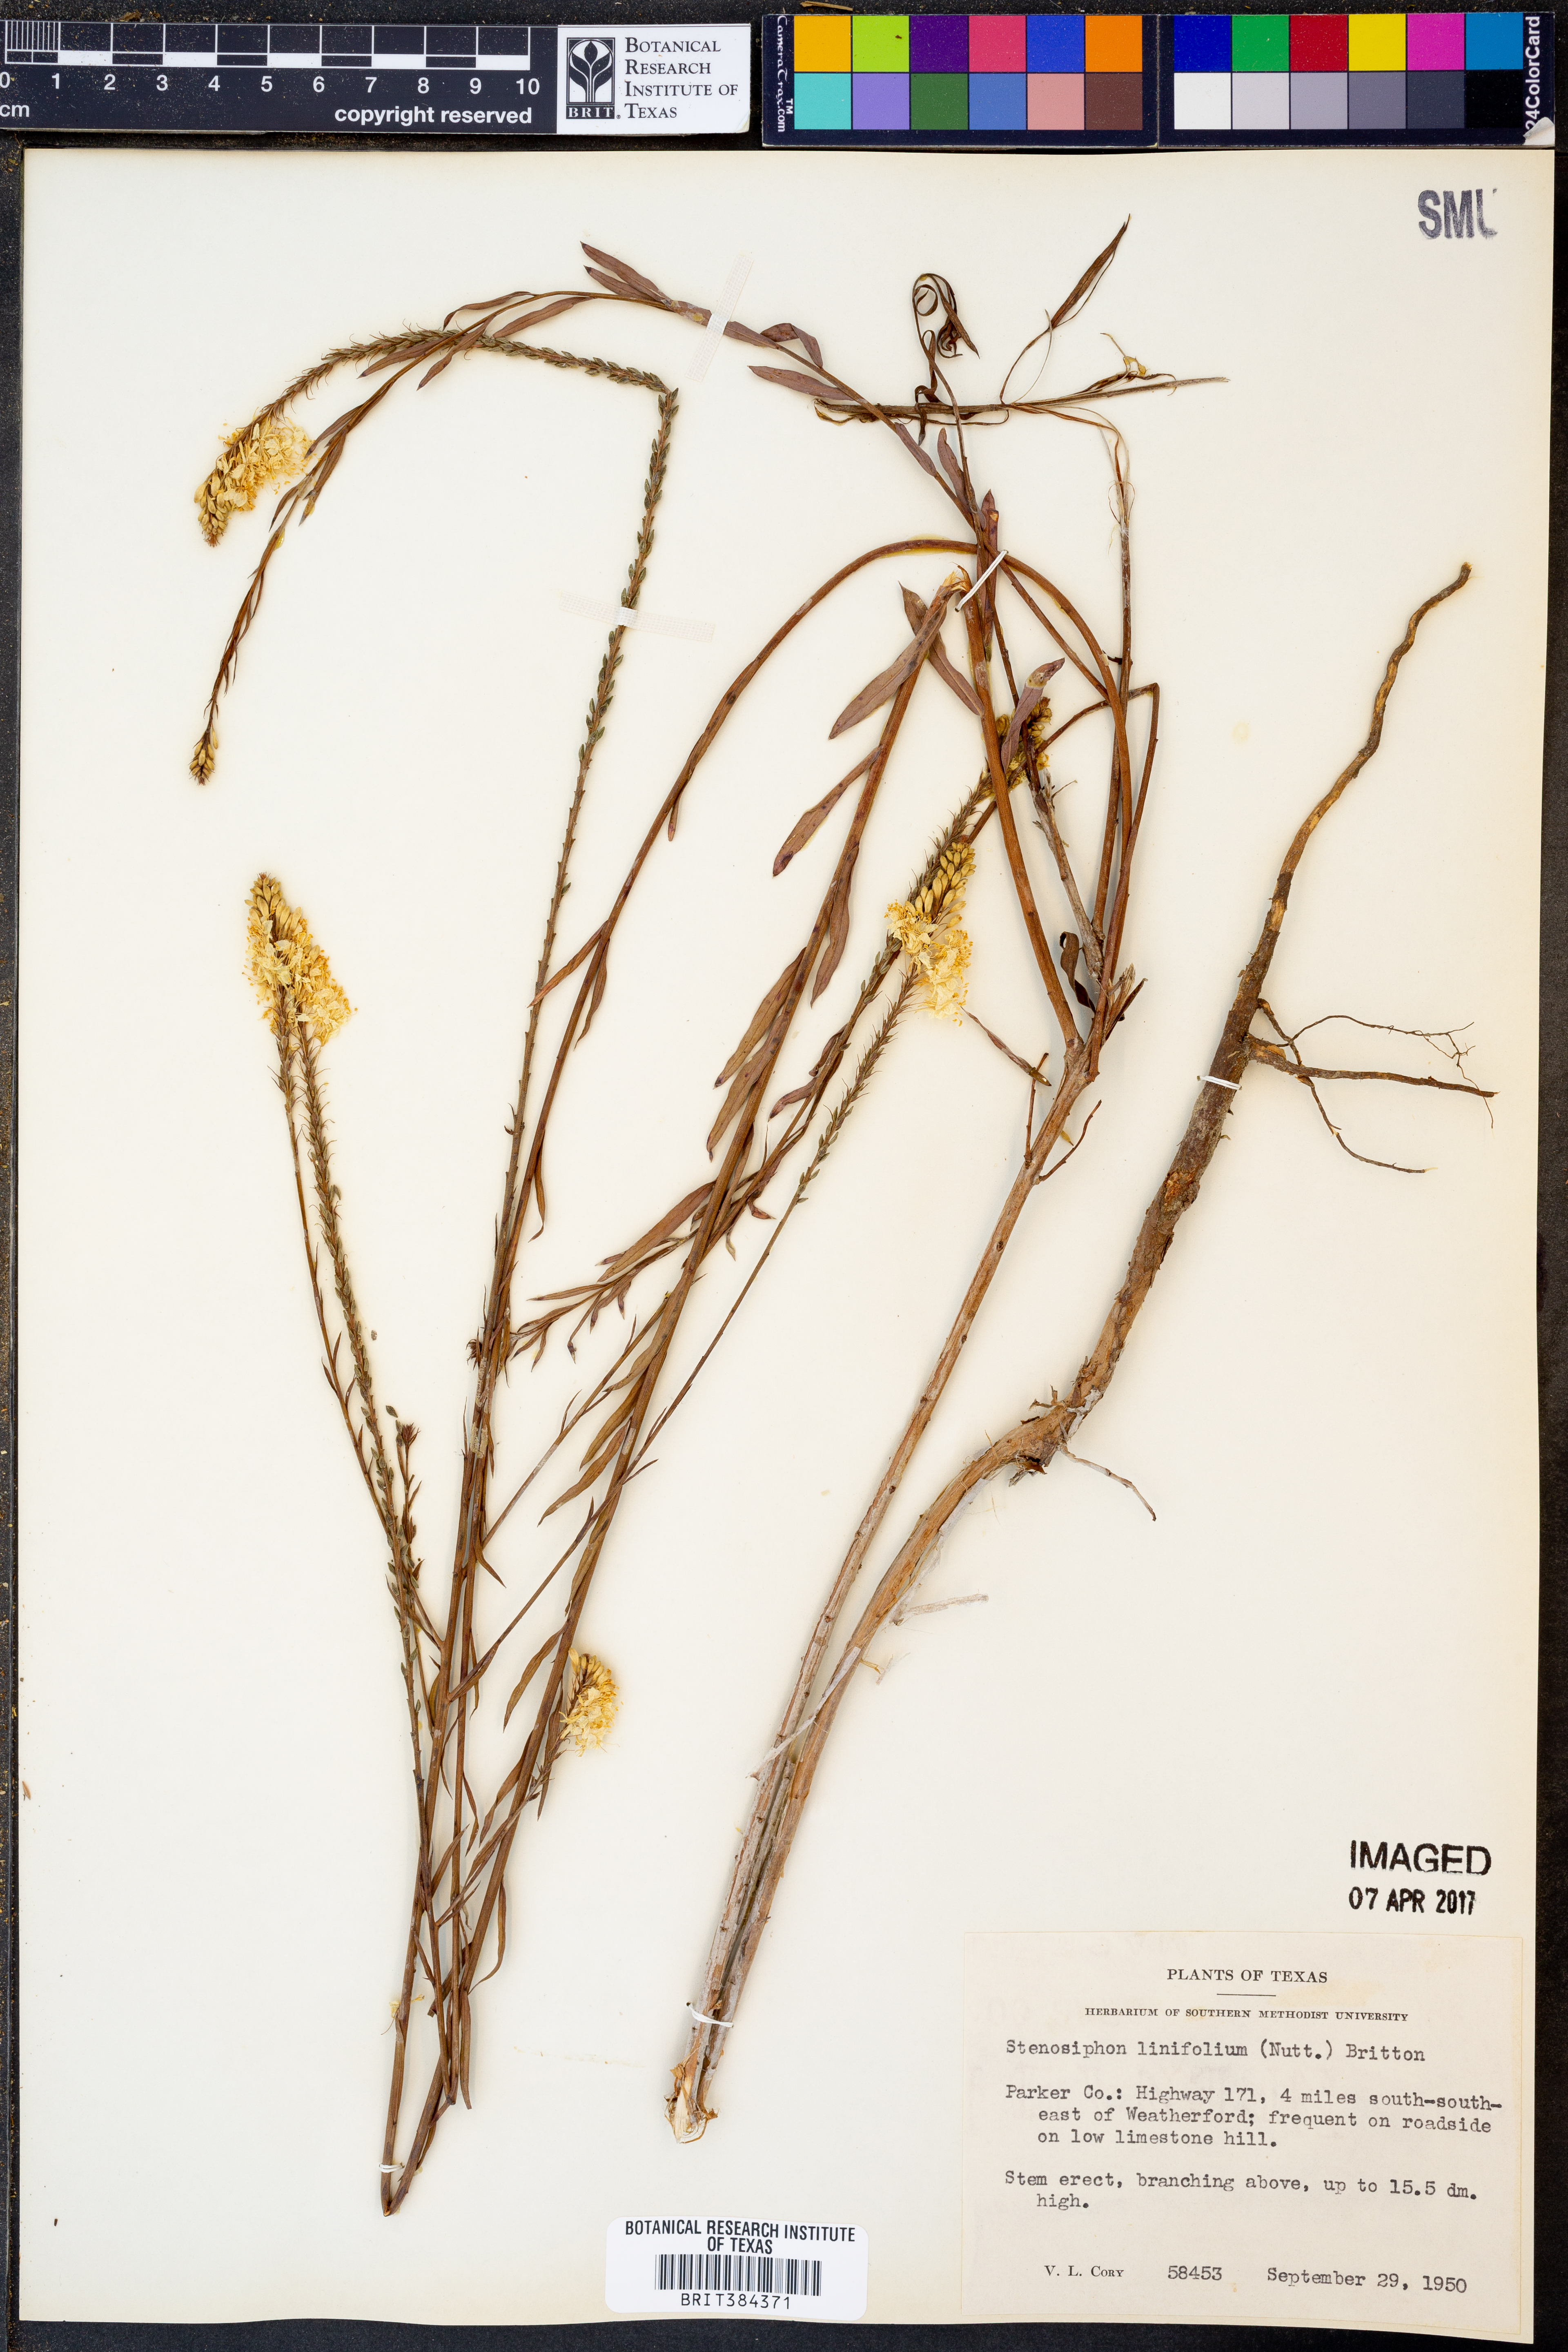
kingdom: Plantae
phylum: Tracheophyta
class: Magnoliopsida
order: Myrtales
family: Onagraceae
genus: Oenothera
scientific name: Oenothera glaucifolia
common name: False gaura
